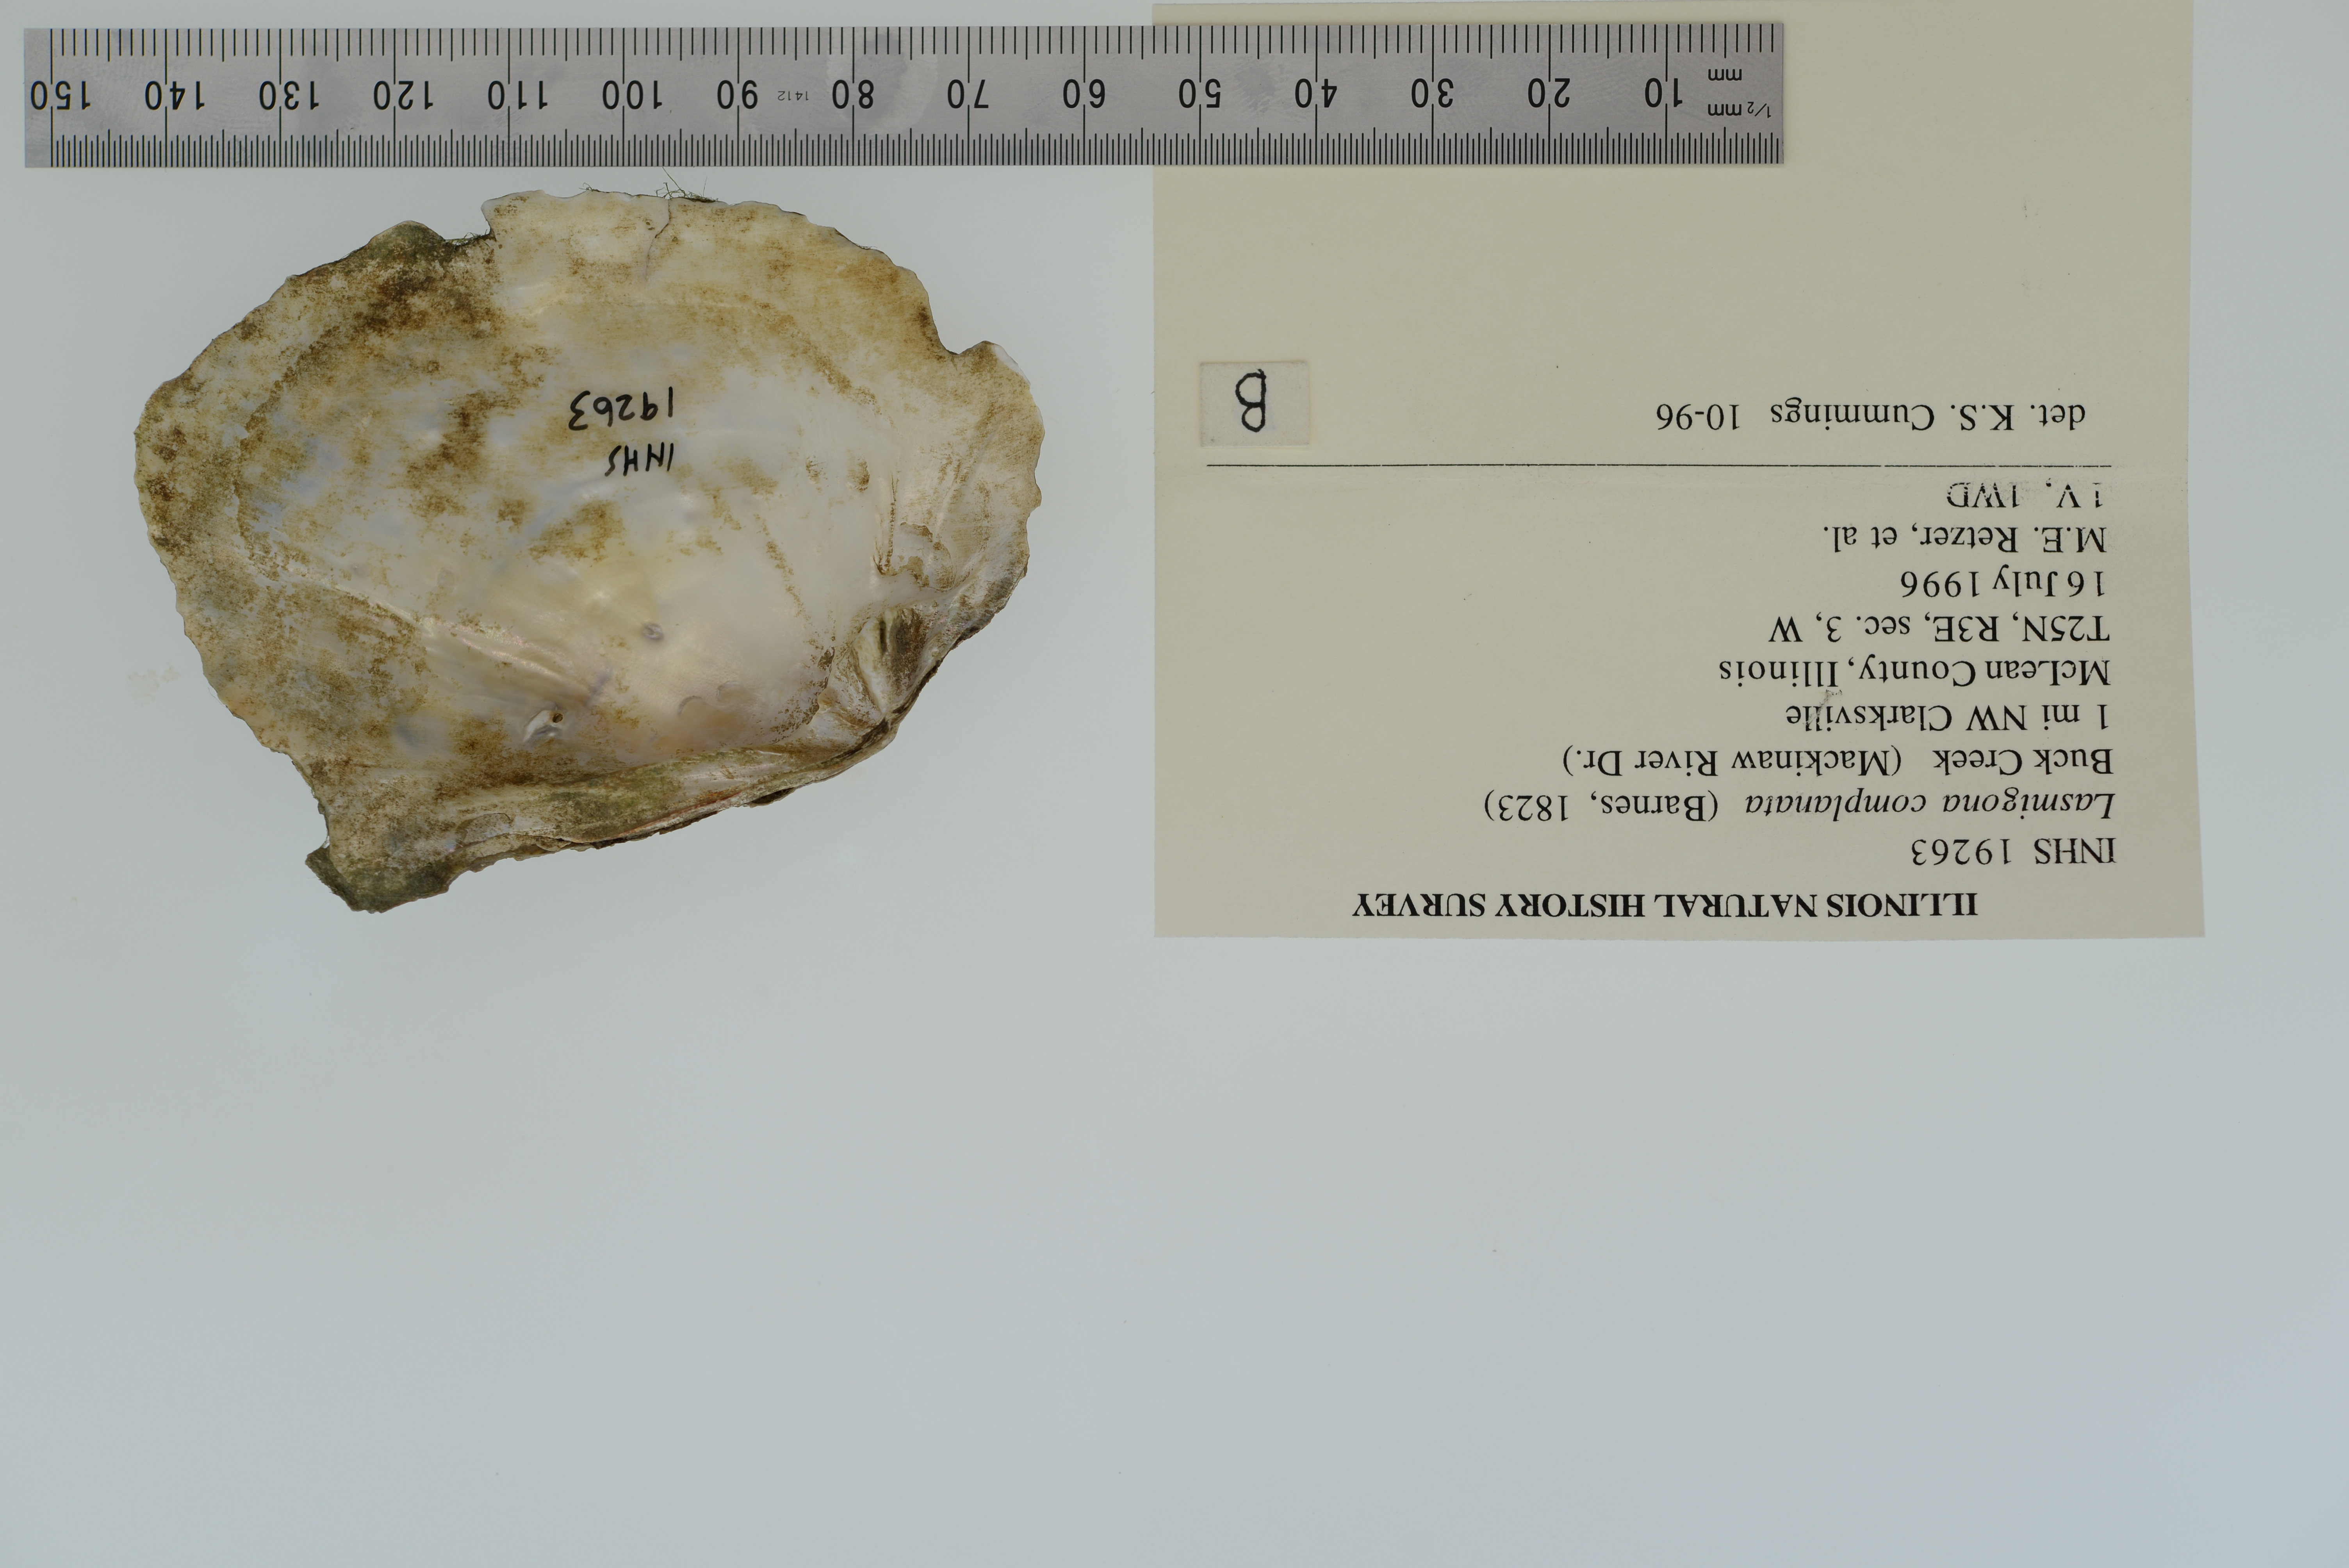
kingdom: Animalia
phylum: Mollusca
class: Bivalvia
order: Unionida
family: Unionidae
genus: Lasmigona
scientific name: Lasmigona complanata
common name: White heelsplitter
